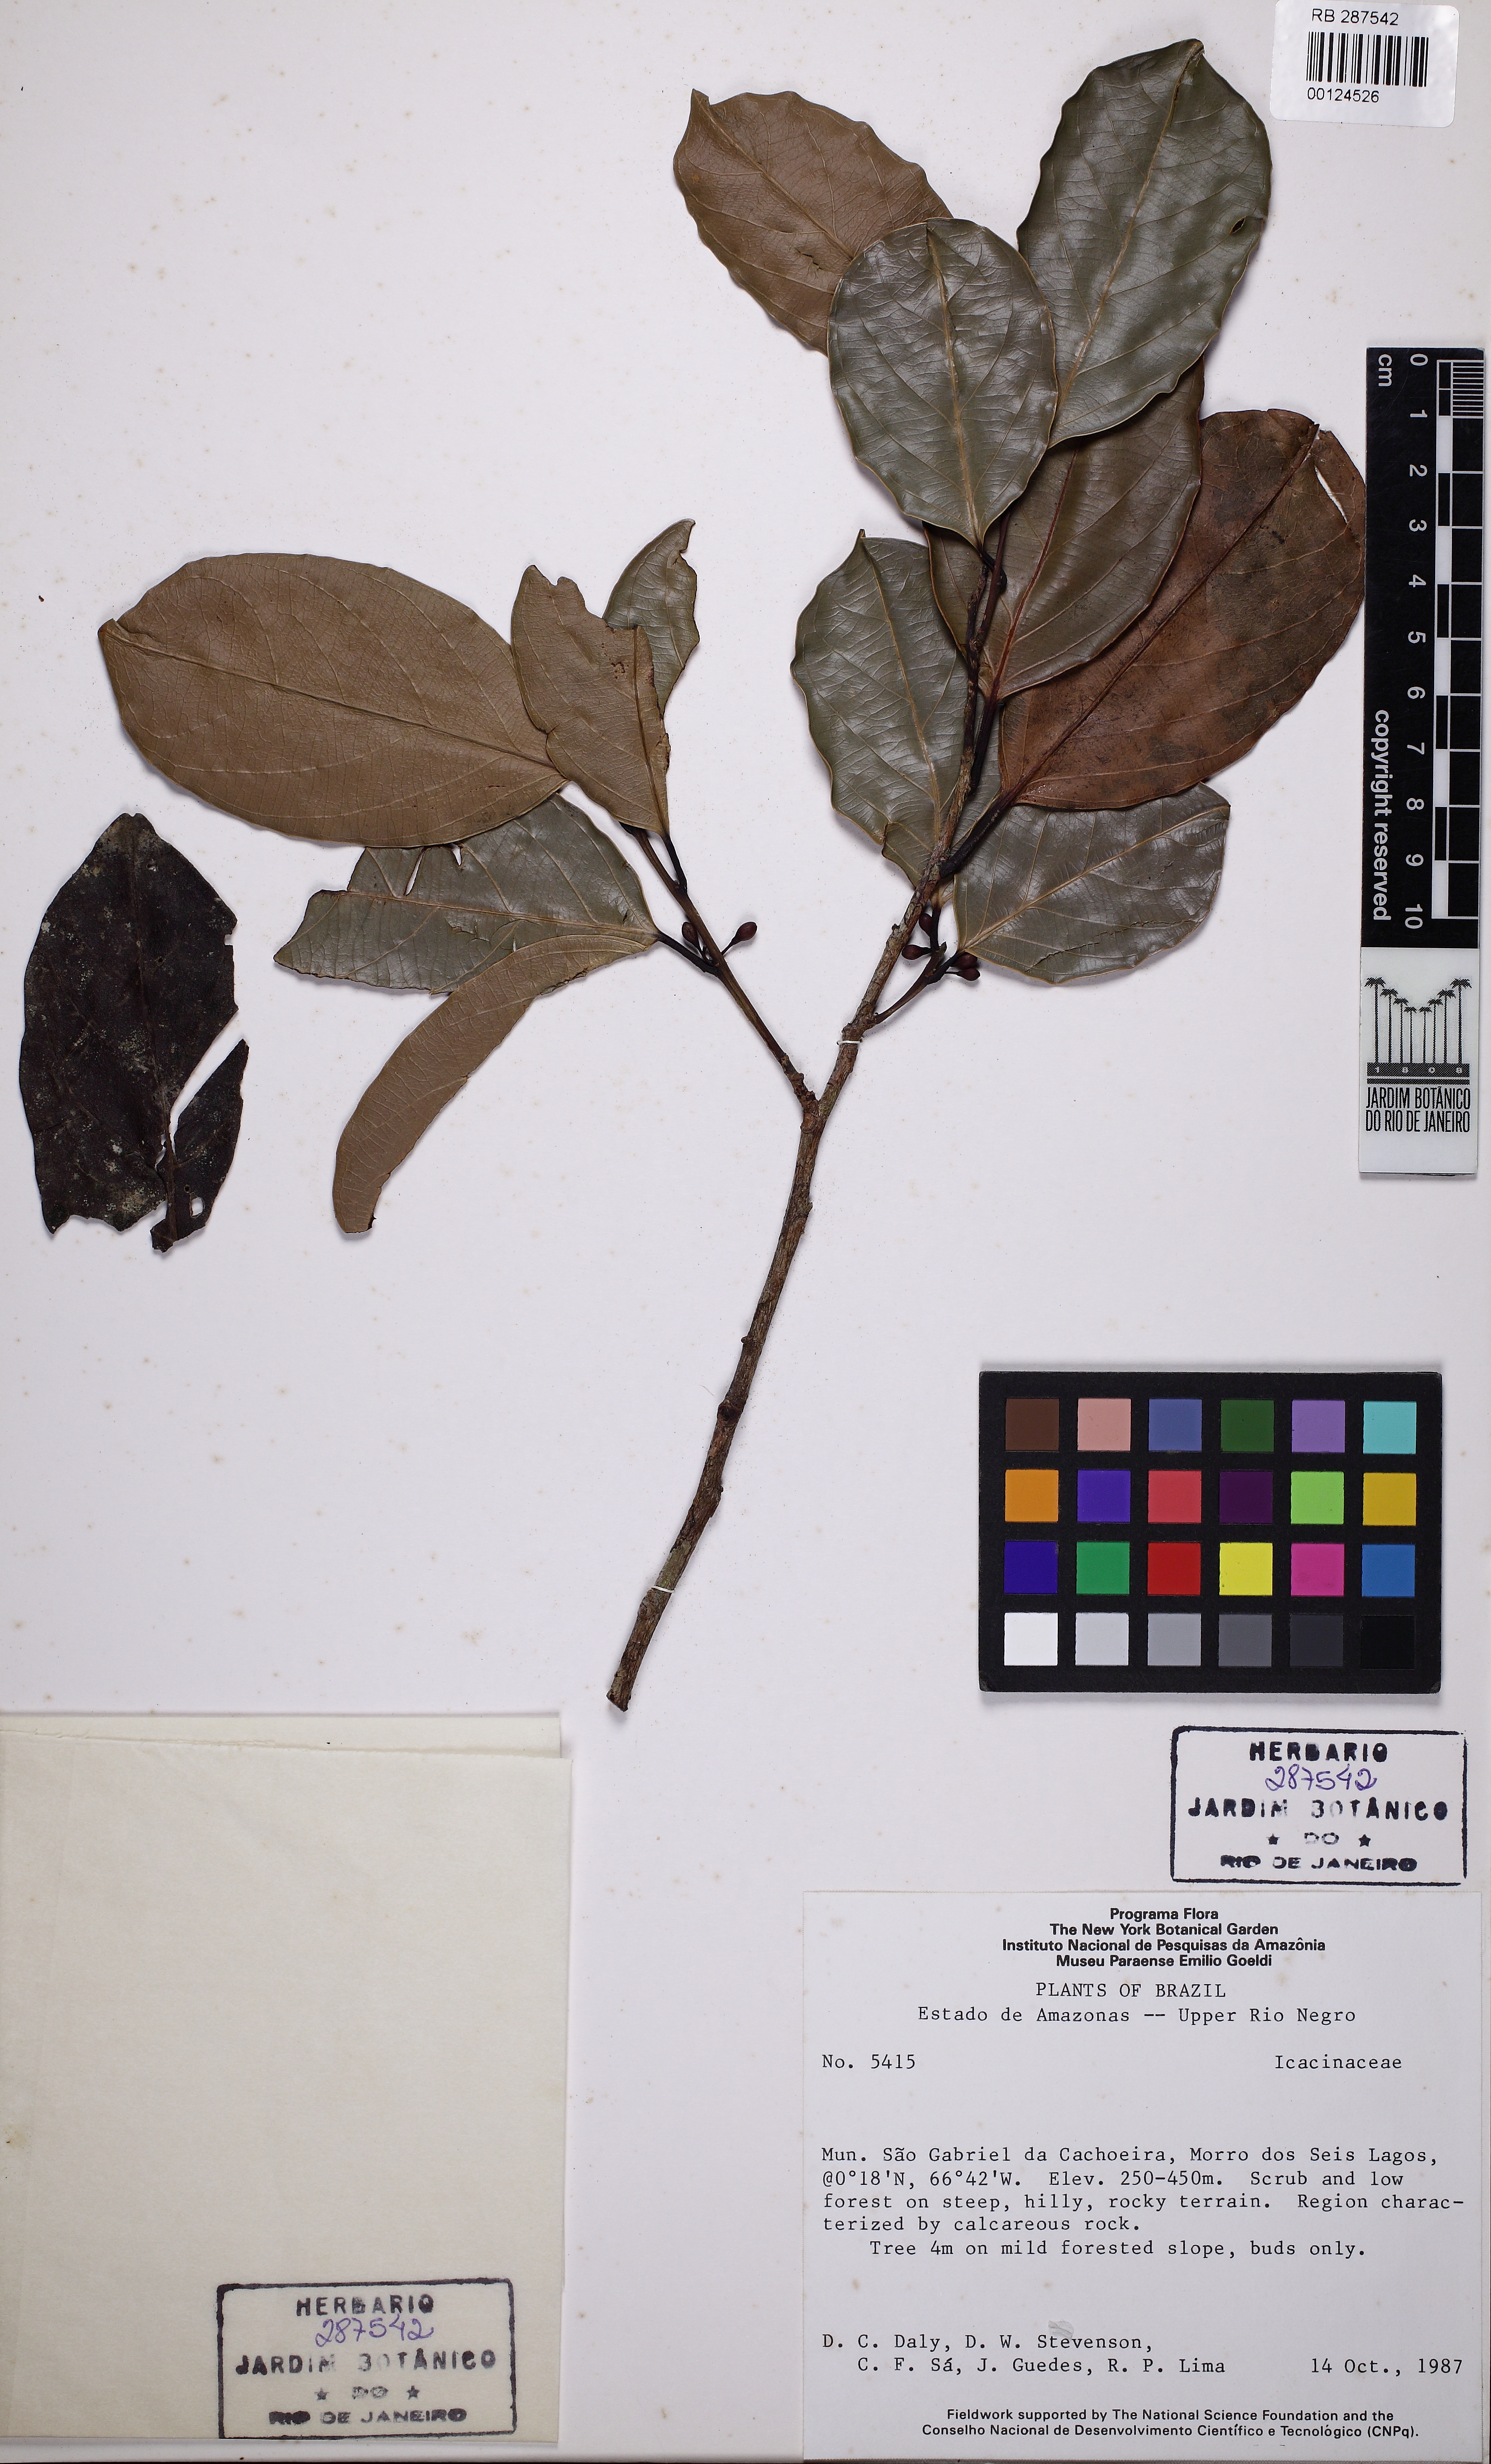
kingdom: Plantae
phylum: Tracheophyta
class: Magnoliopsida
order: Icacinales
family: Icacinaceae
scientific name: Icacinaceae
